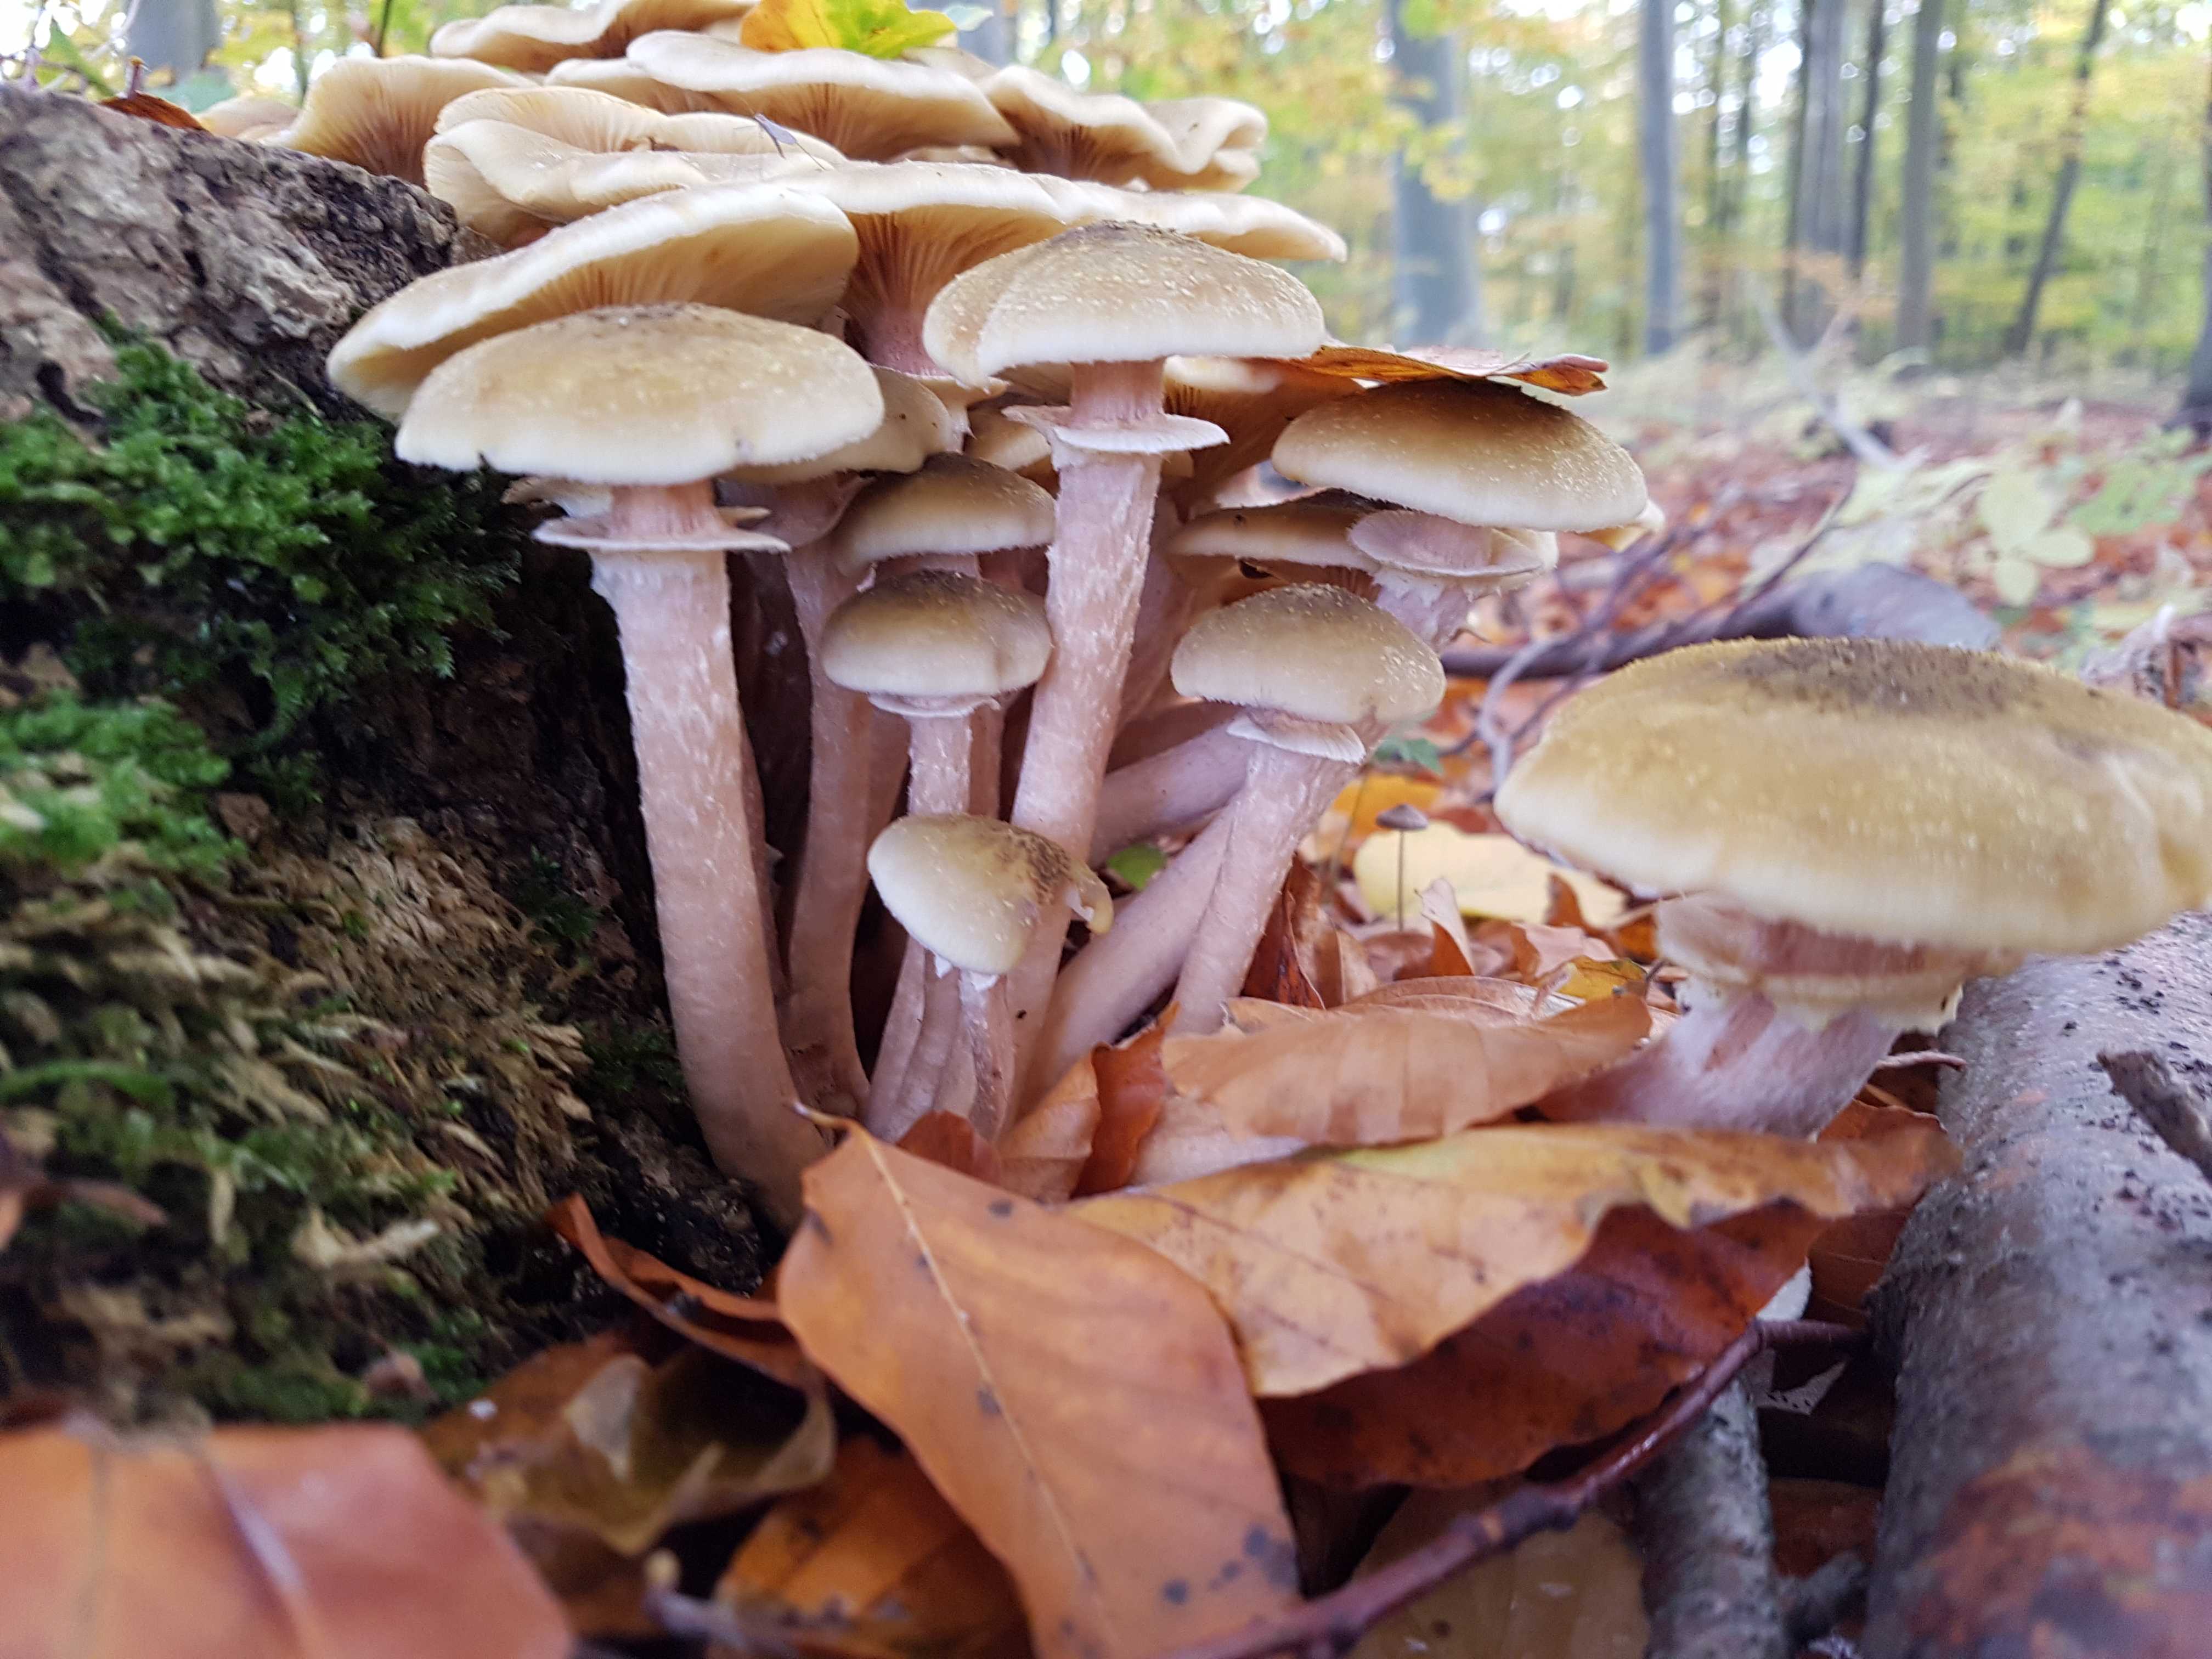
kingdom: Fungi
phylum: Basidiomycota
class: Agaricomycetes
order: Agaricales
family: Physalacriaceae
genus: Armillaria
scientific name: Armillaria mellea
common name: ægte honningsvamp
